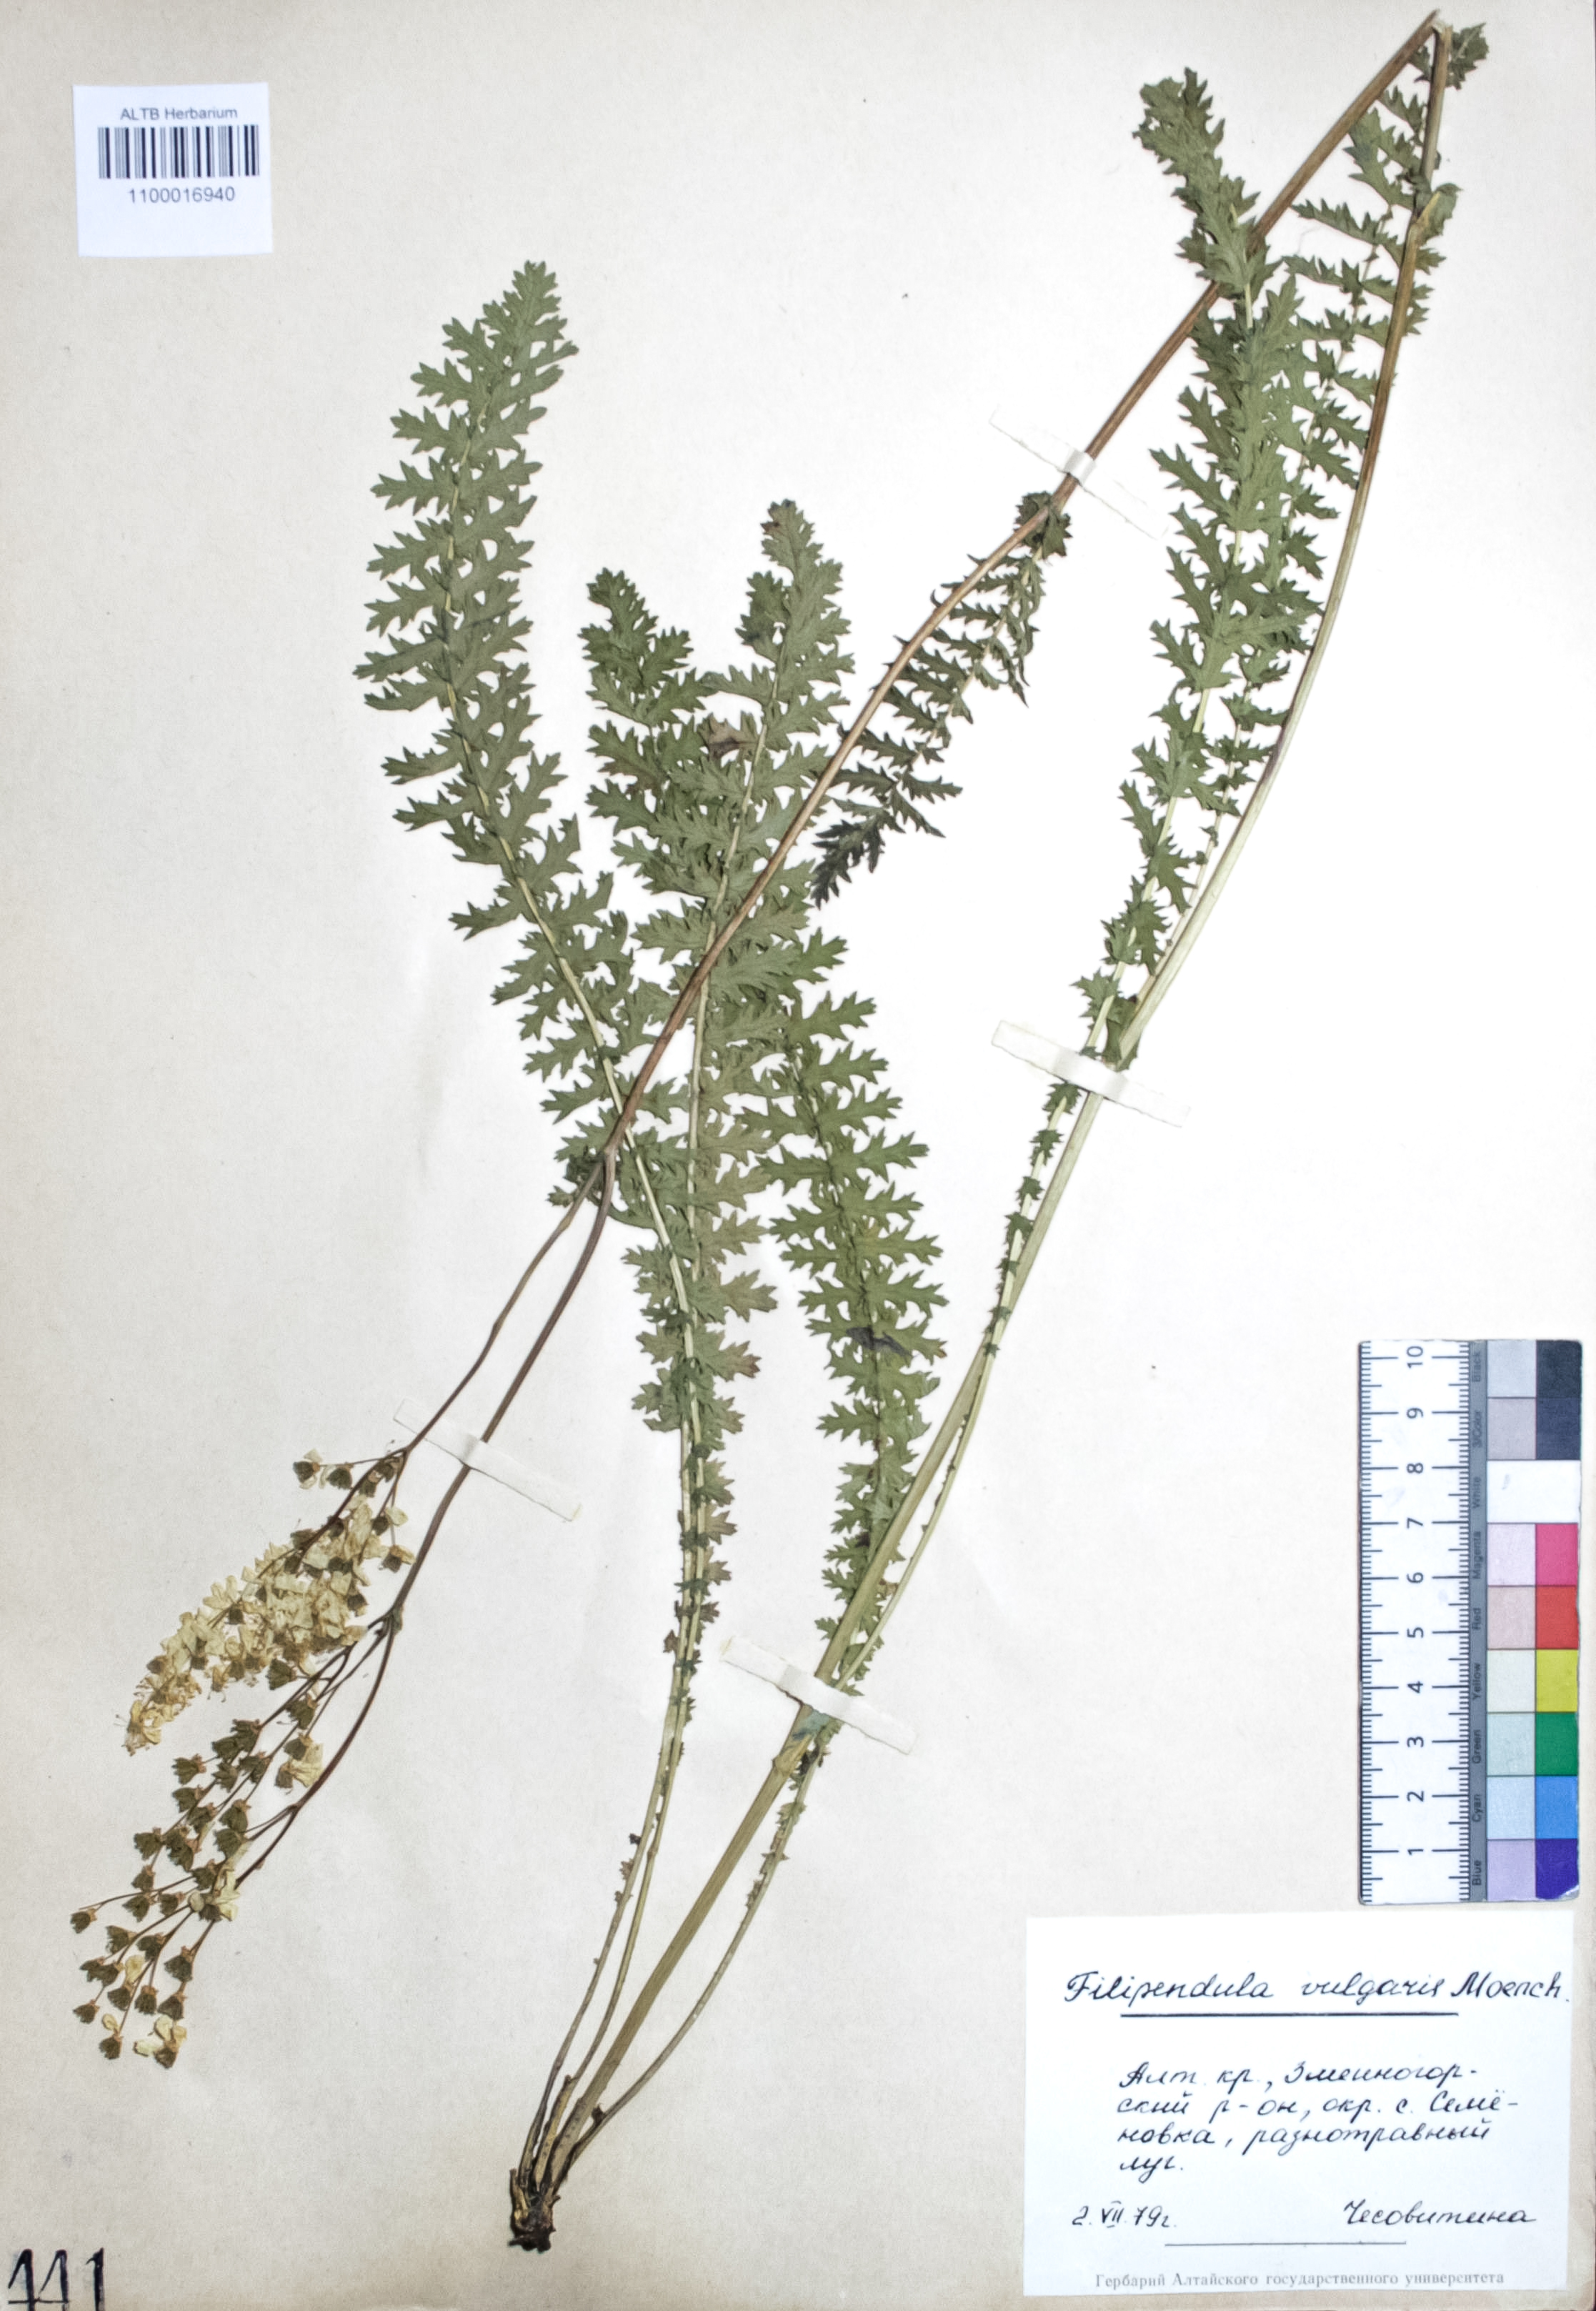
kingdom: Plantae
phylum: Tracheophyta
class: Magnoliopsida
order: Rosales
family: Rosaceae
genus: Filipendula
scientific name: Filipendula vulgaris
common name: Dropwort
